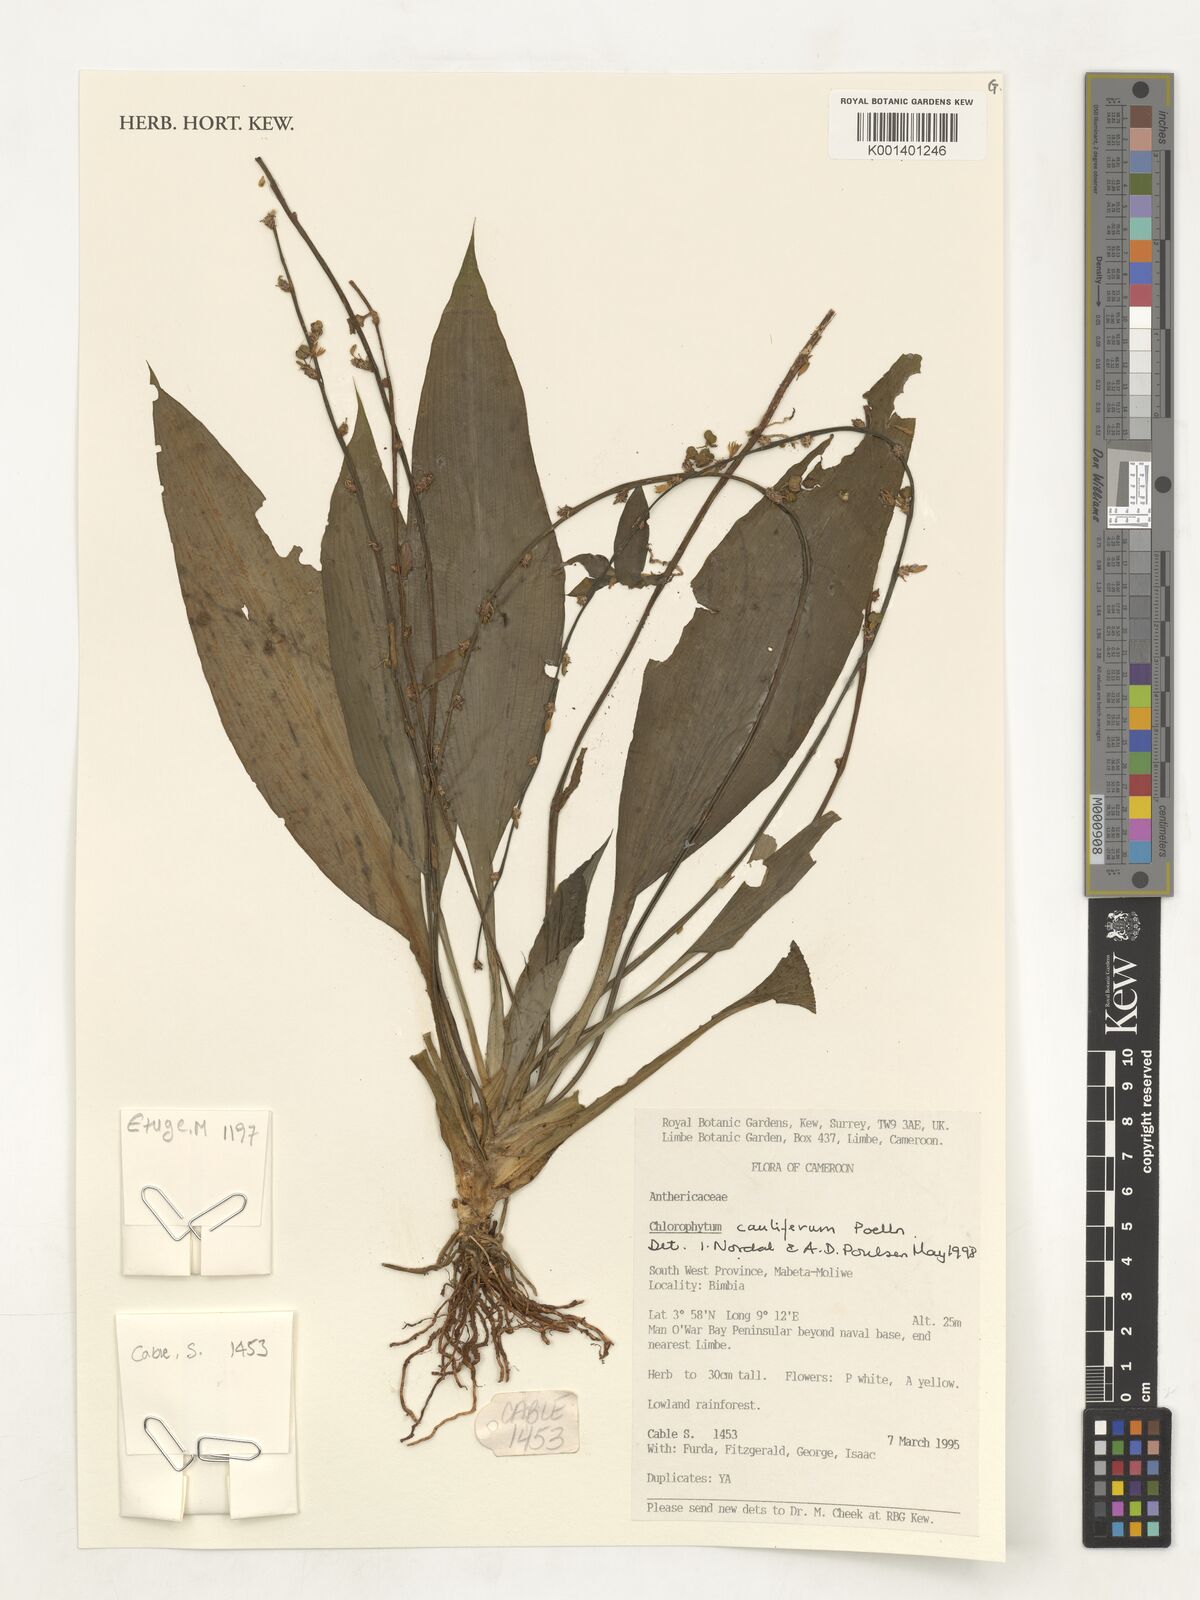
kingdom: Plantae
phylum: Tracheophyta
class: Liliopsida
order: Asparagales
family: Asparagaceae
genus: Chlorophytum
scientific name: Chlorophytum sparsiflorum
